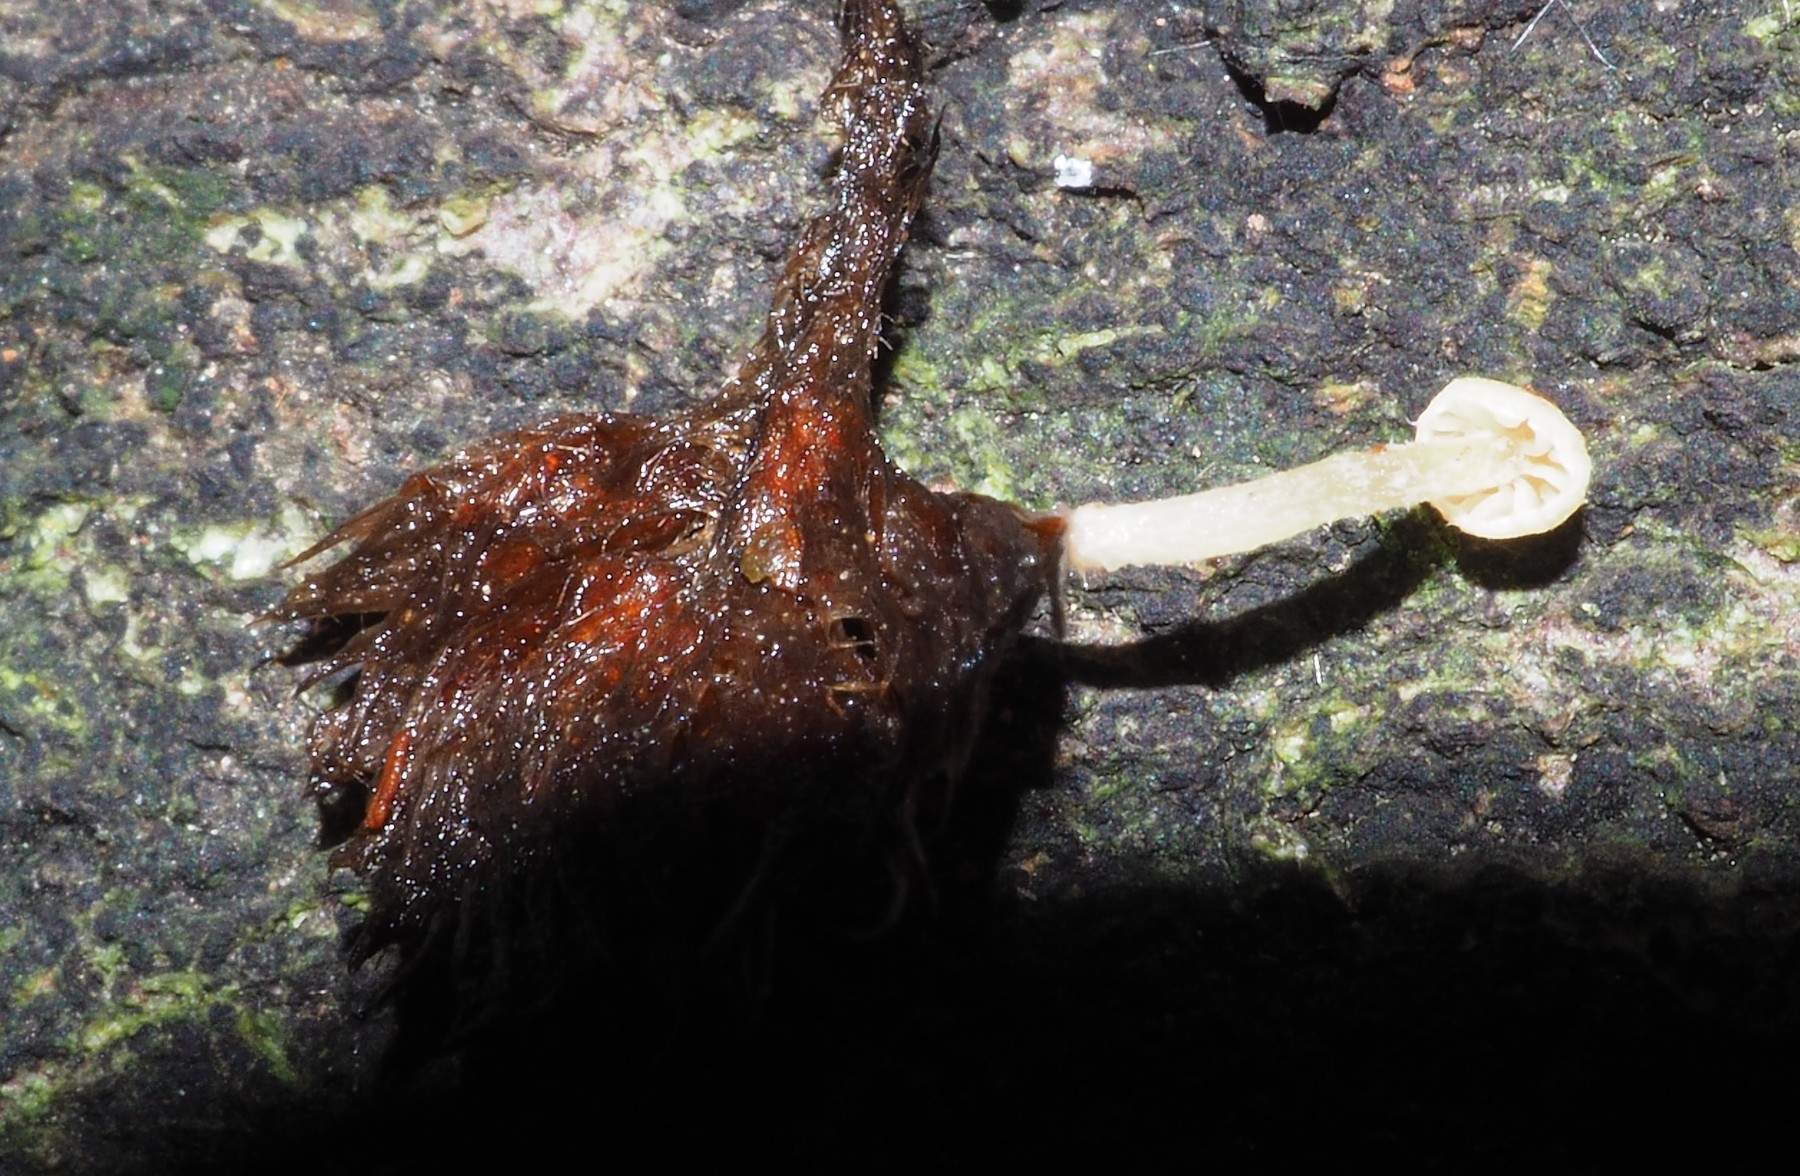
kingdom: Fungi
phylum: Basidiomycota
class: Agaricomycetes
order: Agaricales
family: Tubariaceae
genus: Flammulaster
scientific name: Flammulaster
